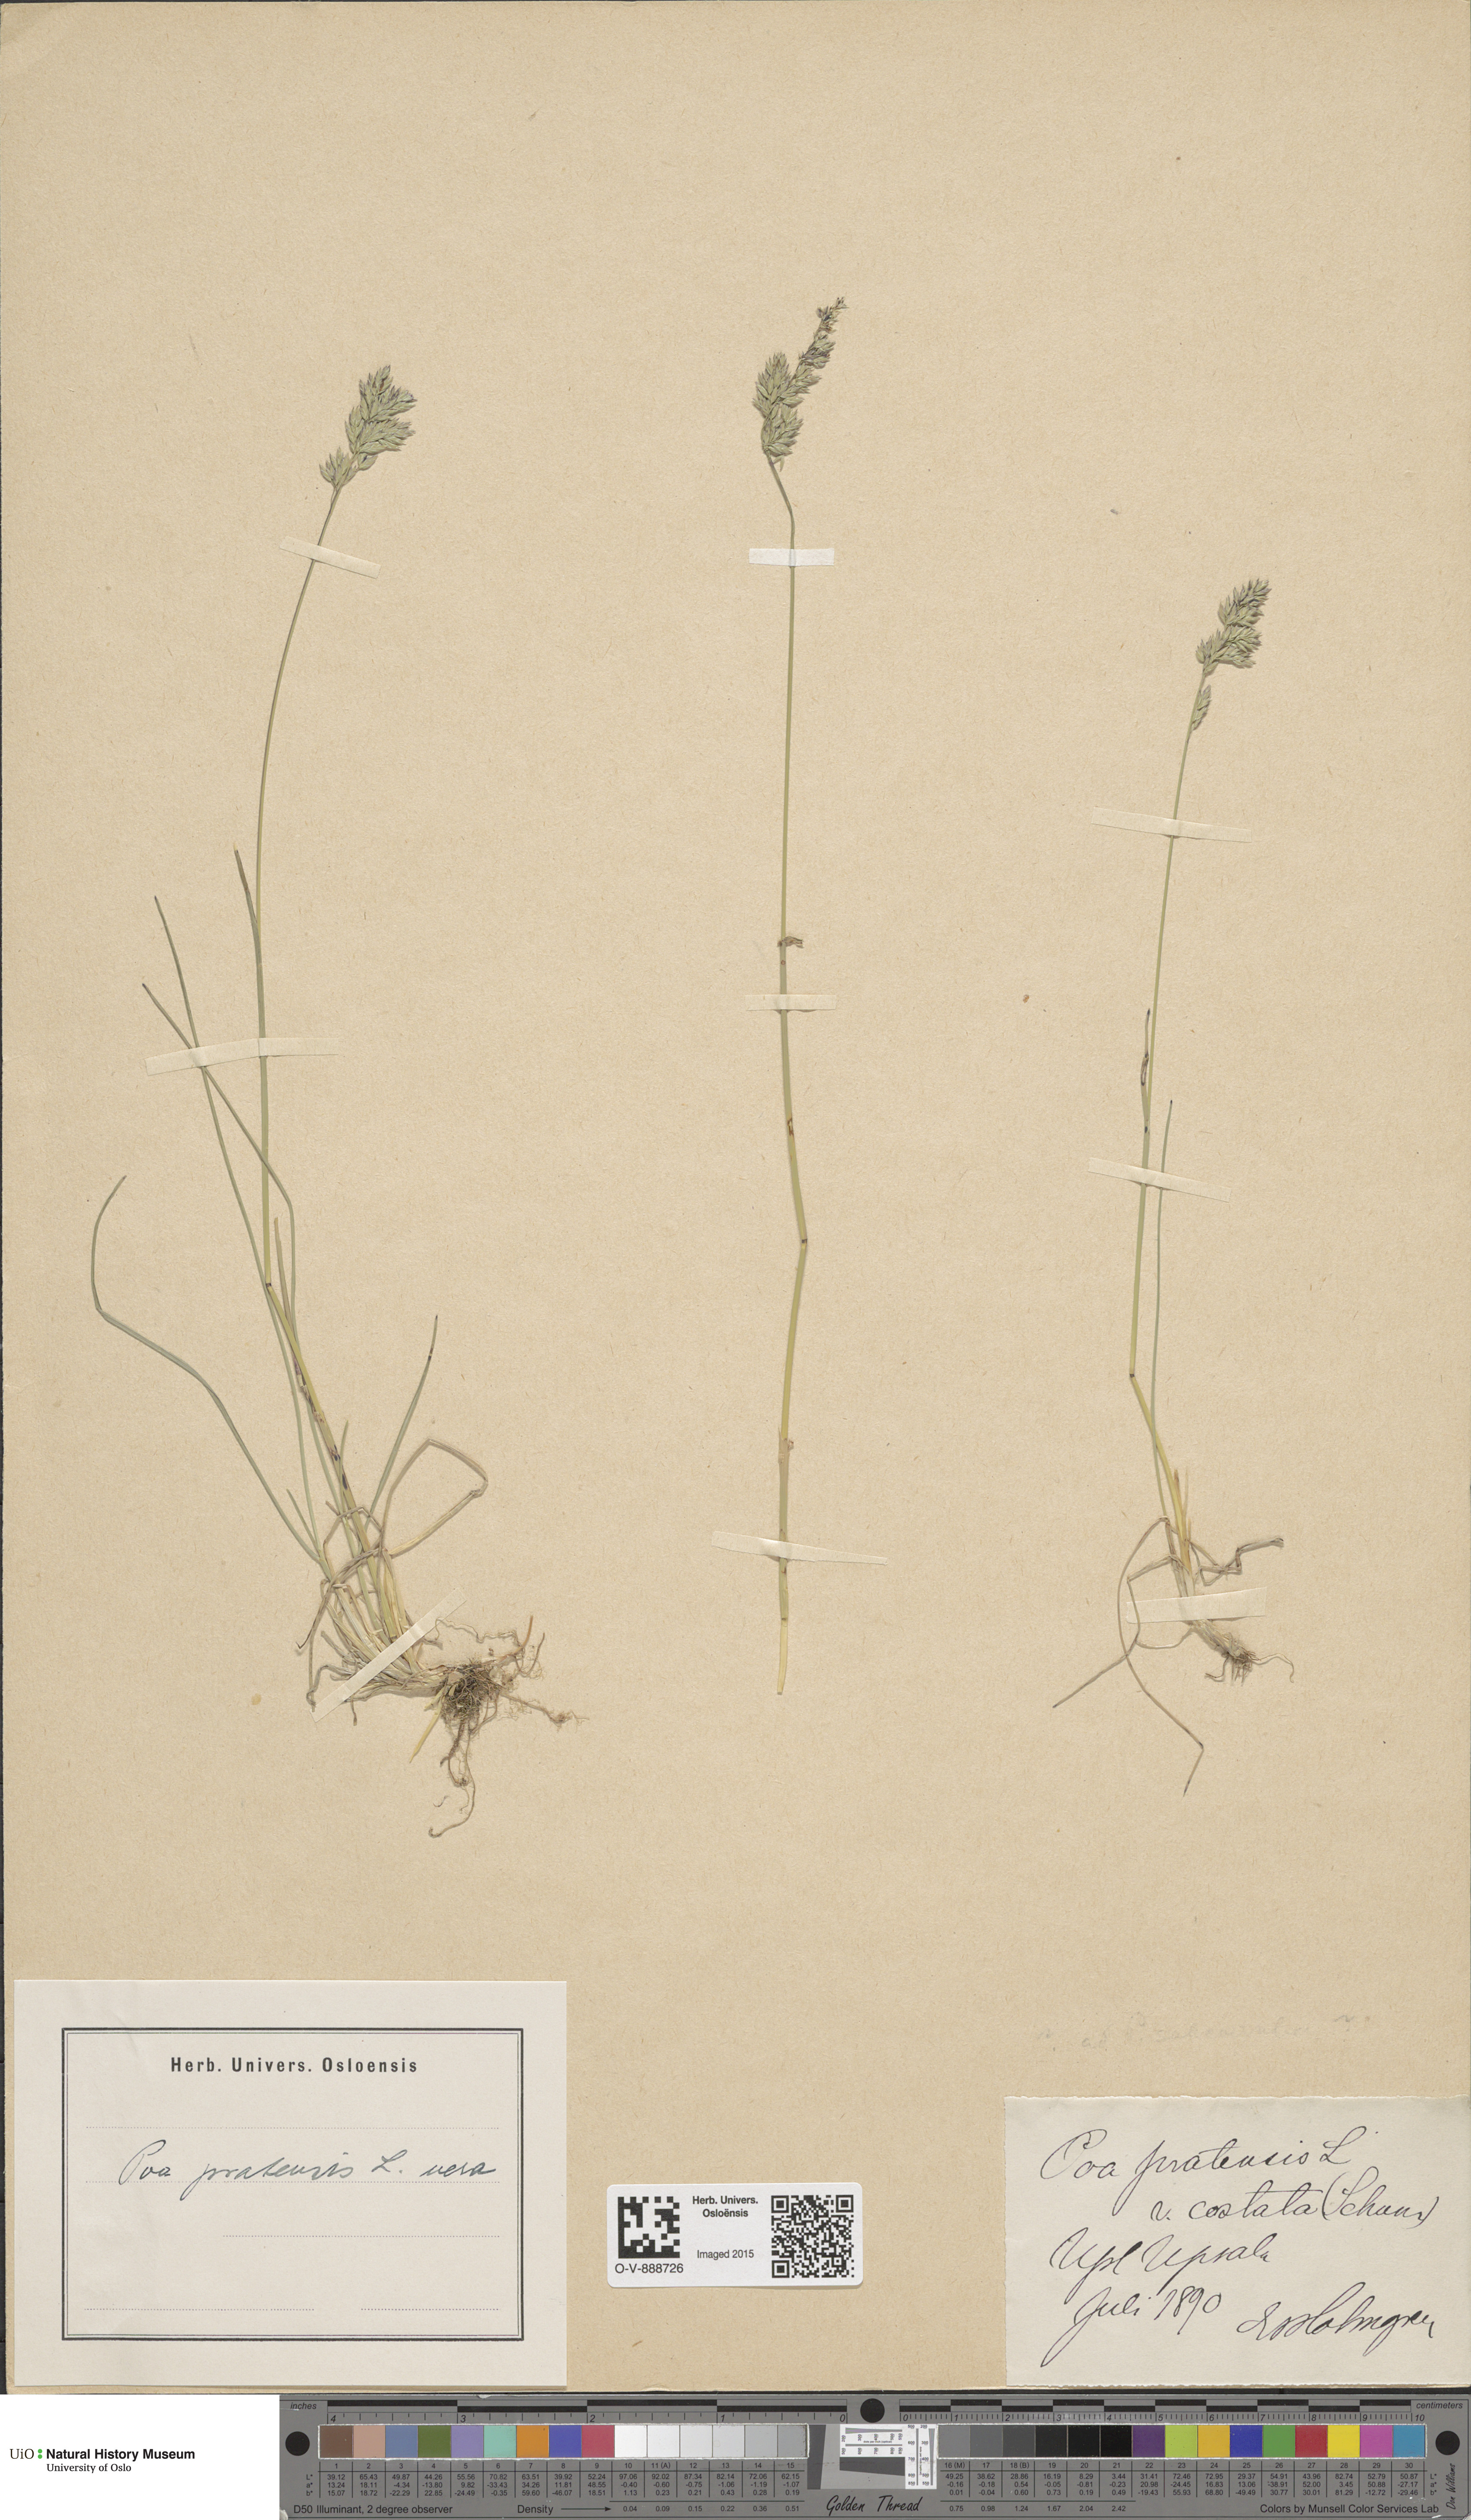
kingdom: Plantae
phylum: Tracheophyta
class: Liliopsida
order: Poales
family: Poaceae
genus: Poa
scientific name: Poa pratensis
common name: Kentucky bluegrass
